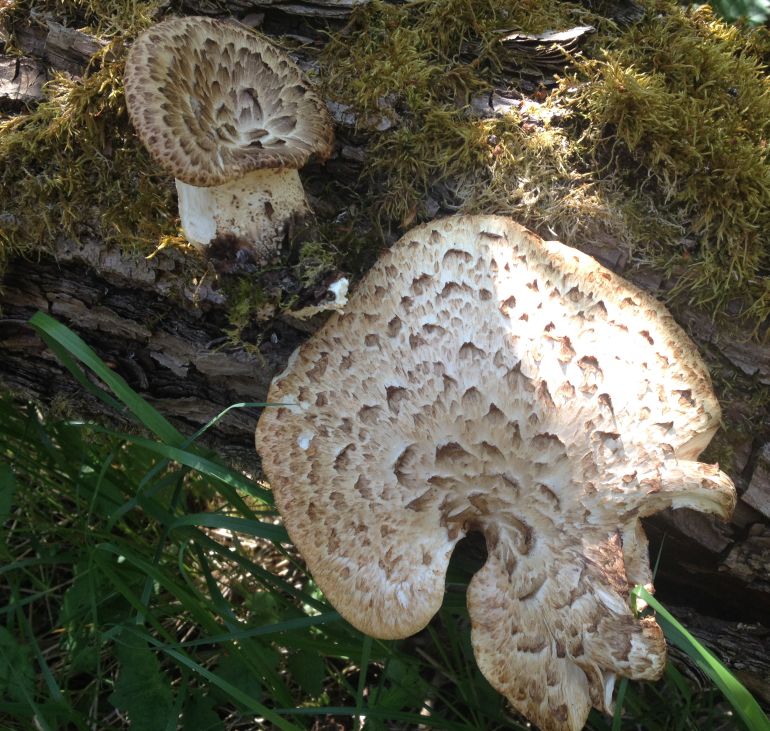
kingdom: Fungi
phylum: Basidiomycota
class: Agaricomycetes
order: Polyporales
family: Polyporaceae
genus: Cerioporus
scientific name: Cerioporus squamosus
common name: skællet stilkporesvamp
